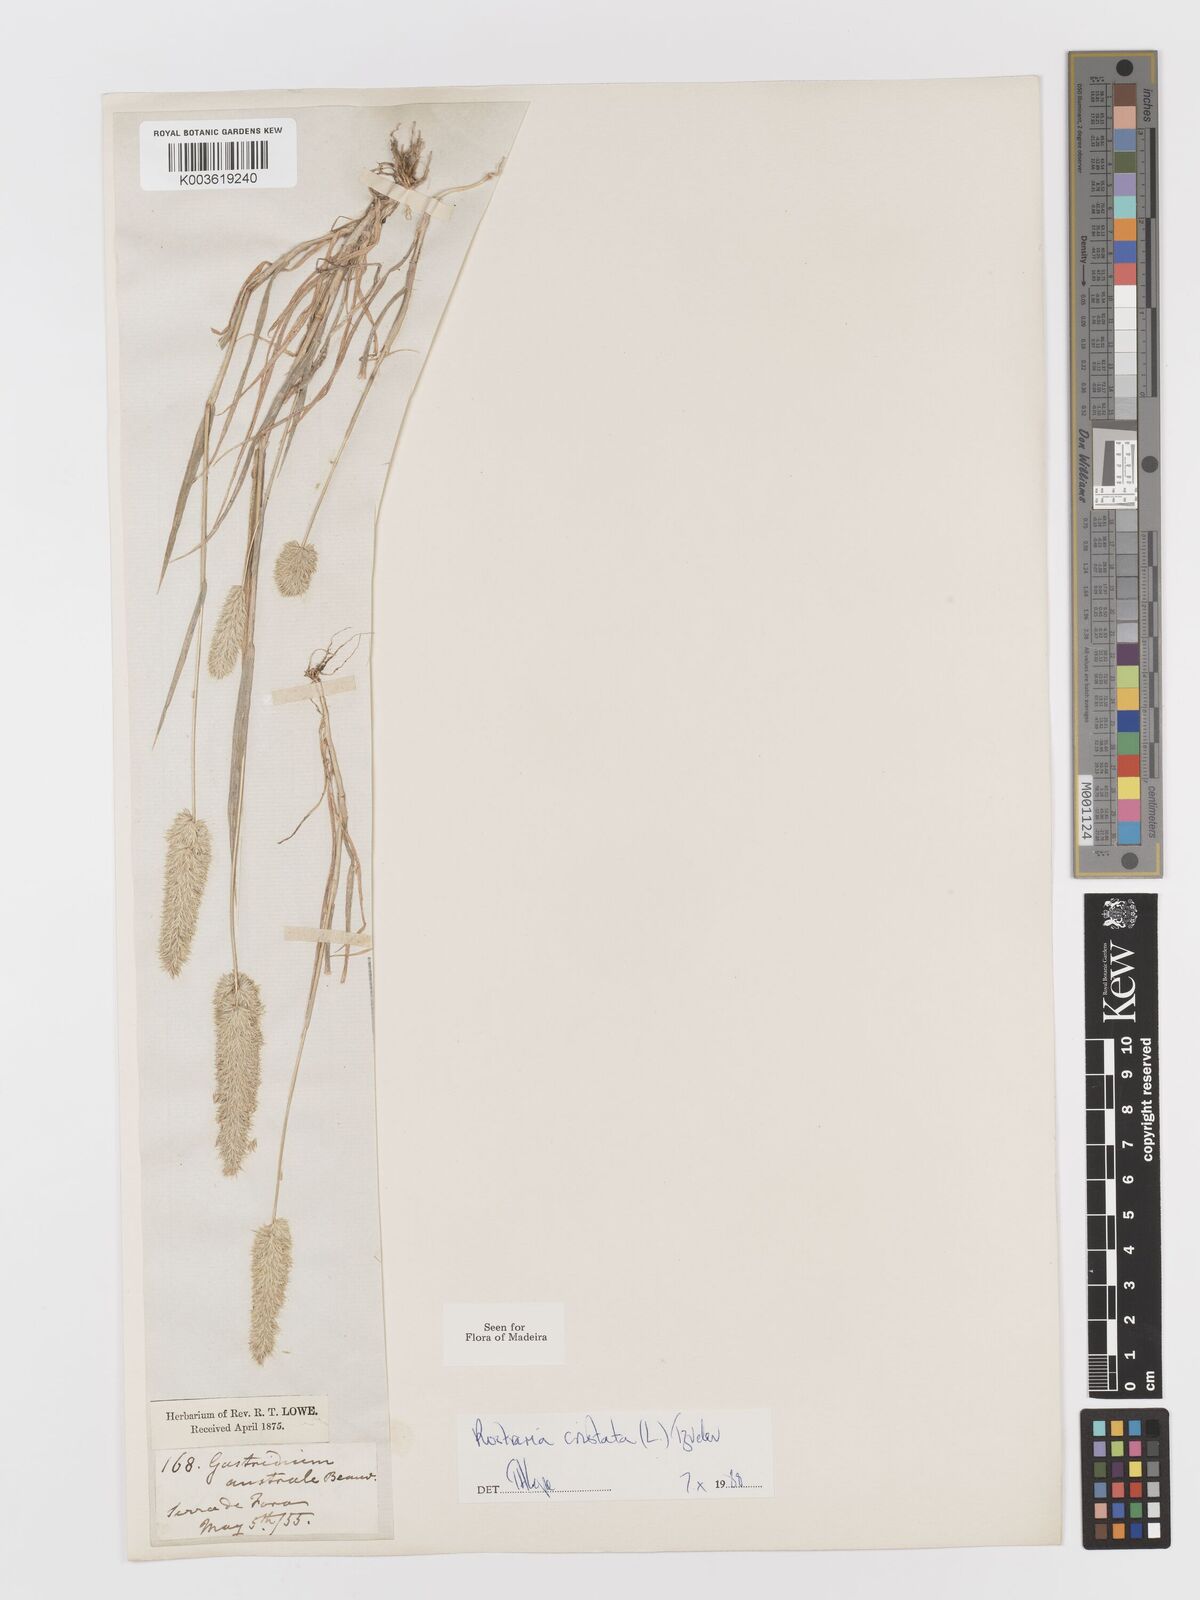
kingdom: Plantae
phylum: Tracheophyta
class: Liliopsida
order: Poales
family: Poaceae
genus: Rostraria
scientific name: Rostraria cristata
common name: Mediterranean hair-grass
